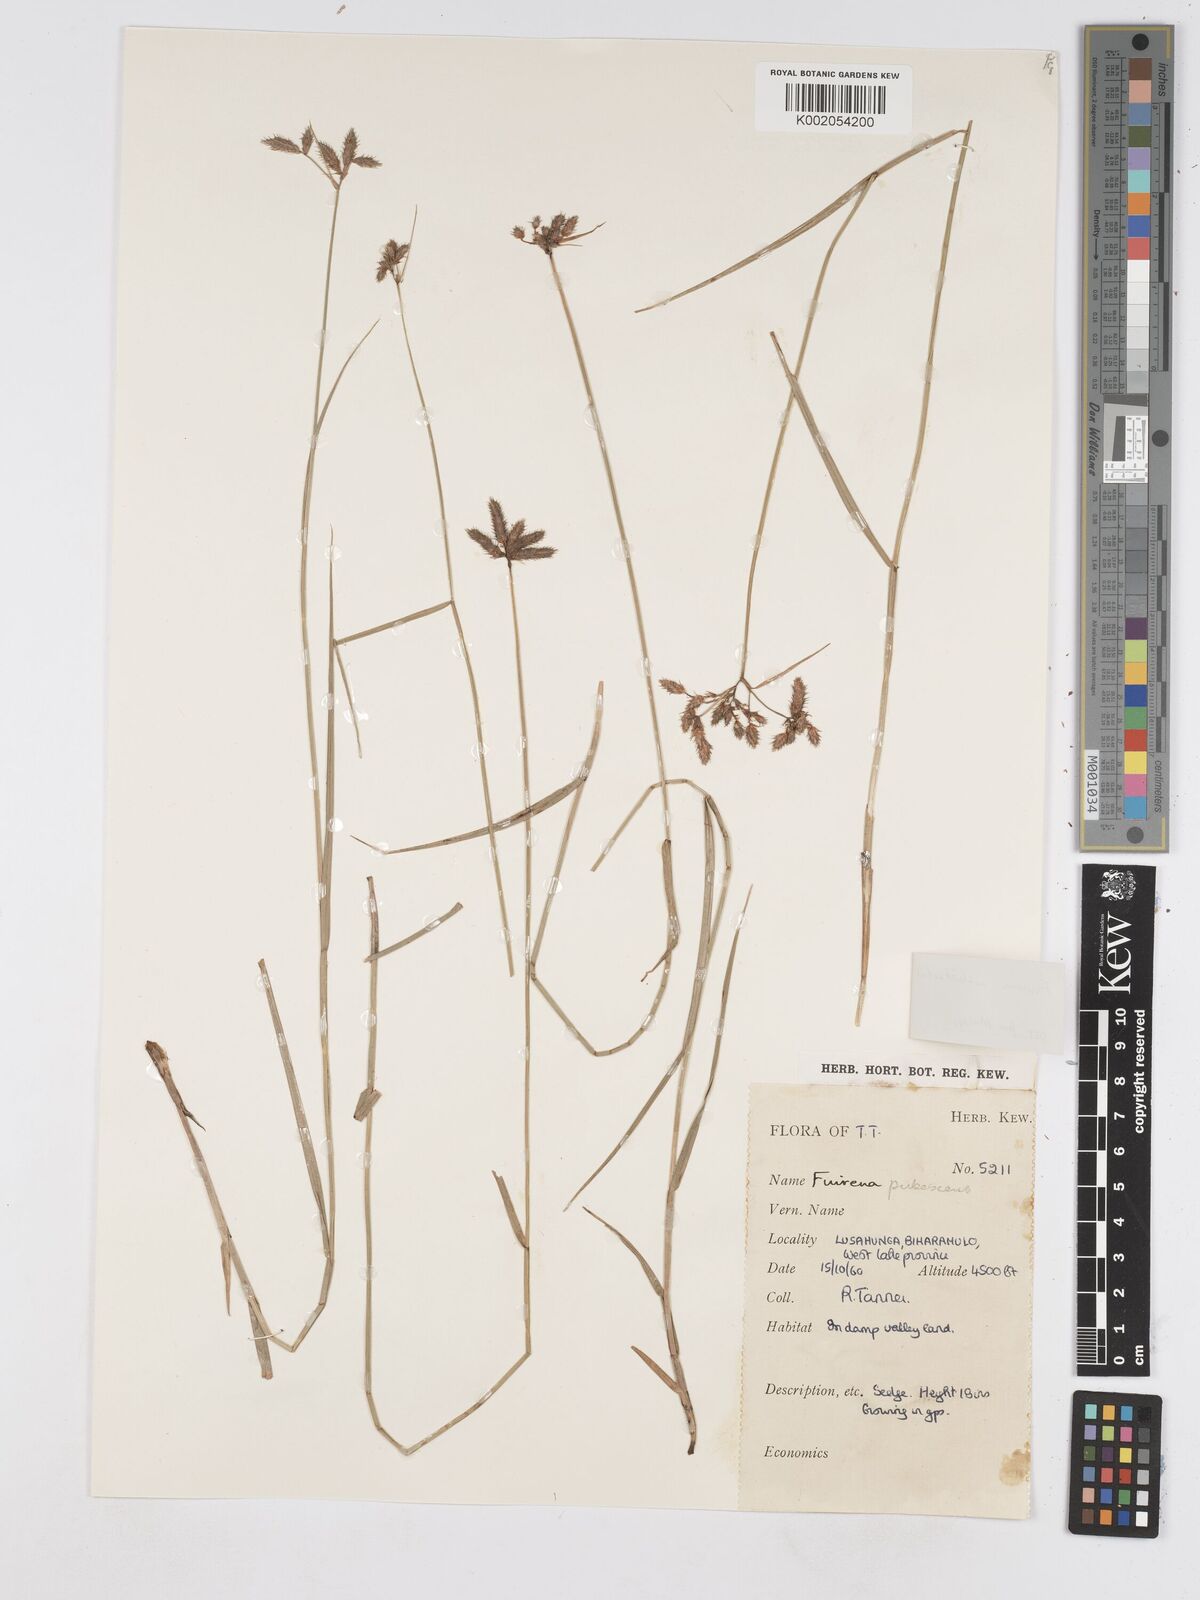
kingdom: Plantae
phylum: Tracheophyta
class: Liliopsida
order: Poales
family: Cyperaceae
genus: Fuirena
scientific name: Fuirena welwitschii
